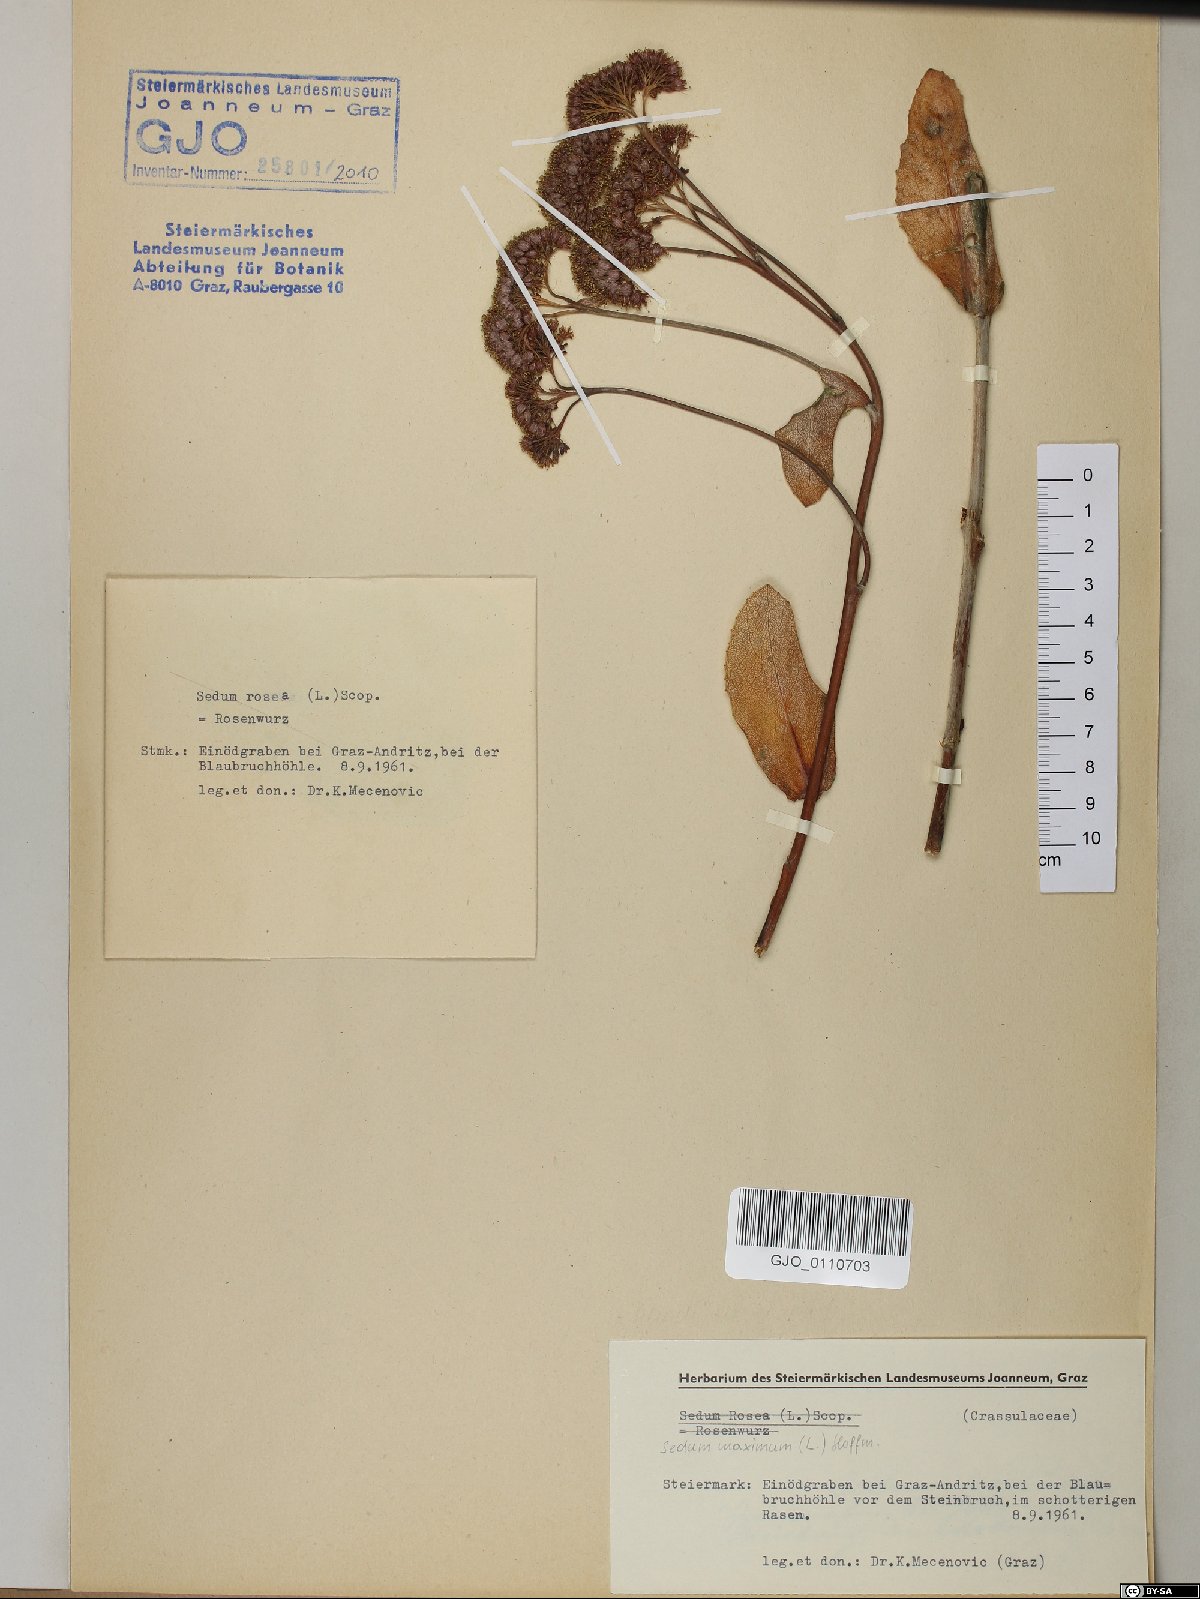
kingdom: Plantae
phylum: Tracheophyta
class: Magnoliopsida
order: Saxifragales
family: Crassulaceae
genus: Hylotelephium
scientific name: Hylotelephium maximum
